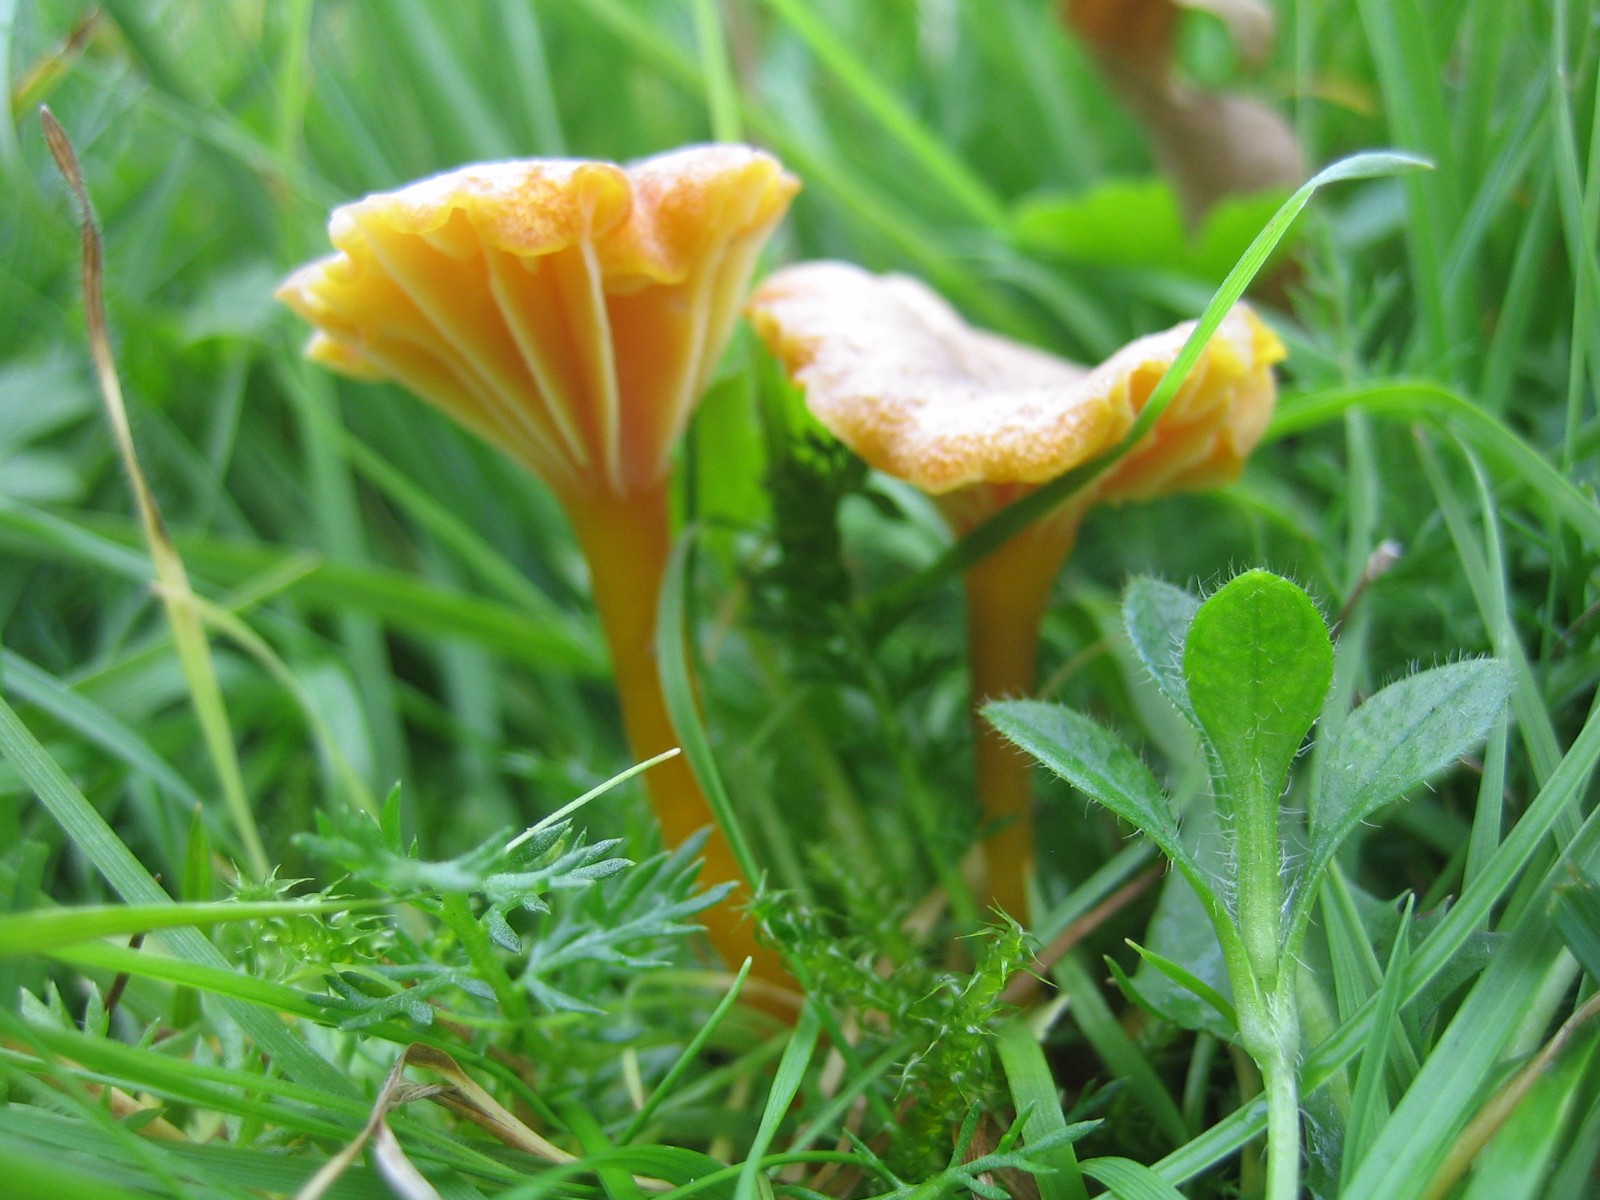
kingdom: Fungi
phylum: Basidiomycota
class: Agaricomycetes
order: Agaricales
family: Hygrophoraceae
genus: Hygrocybe
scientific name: Hygrocybe cantharellus
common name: kantarel-vokshat
